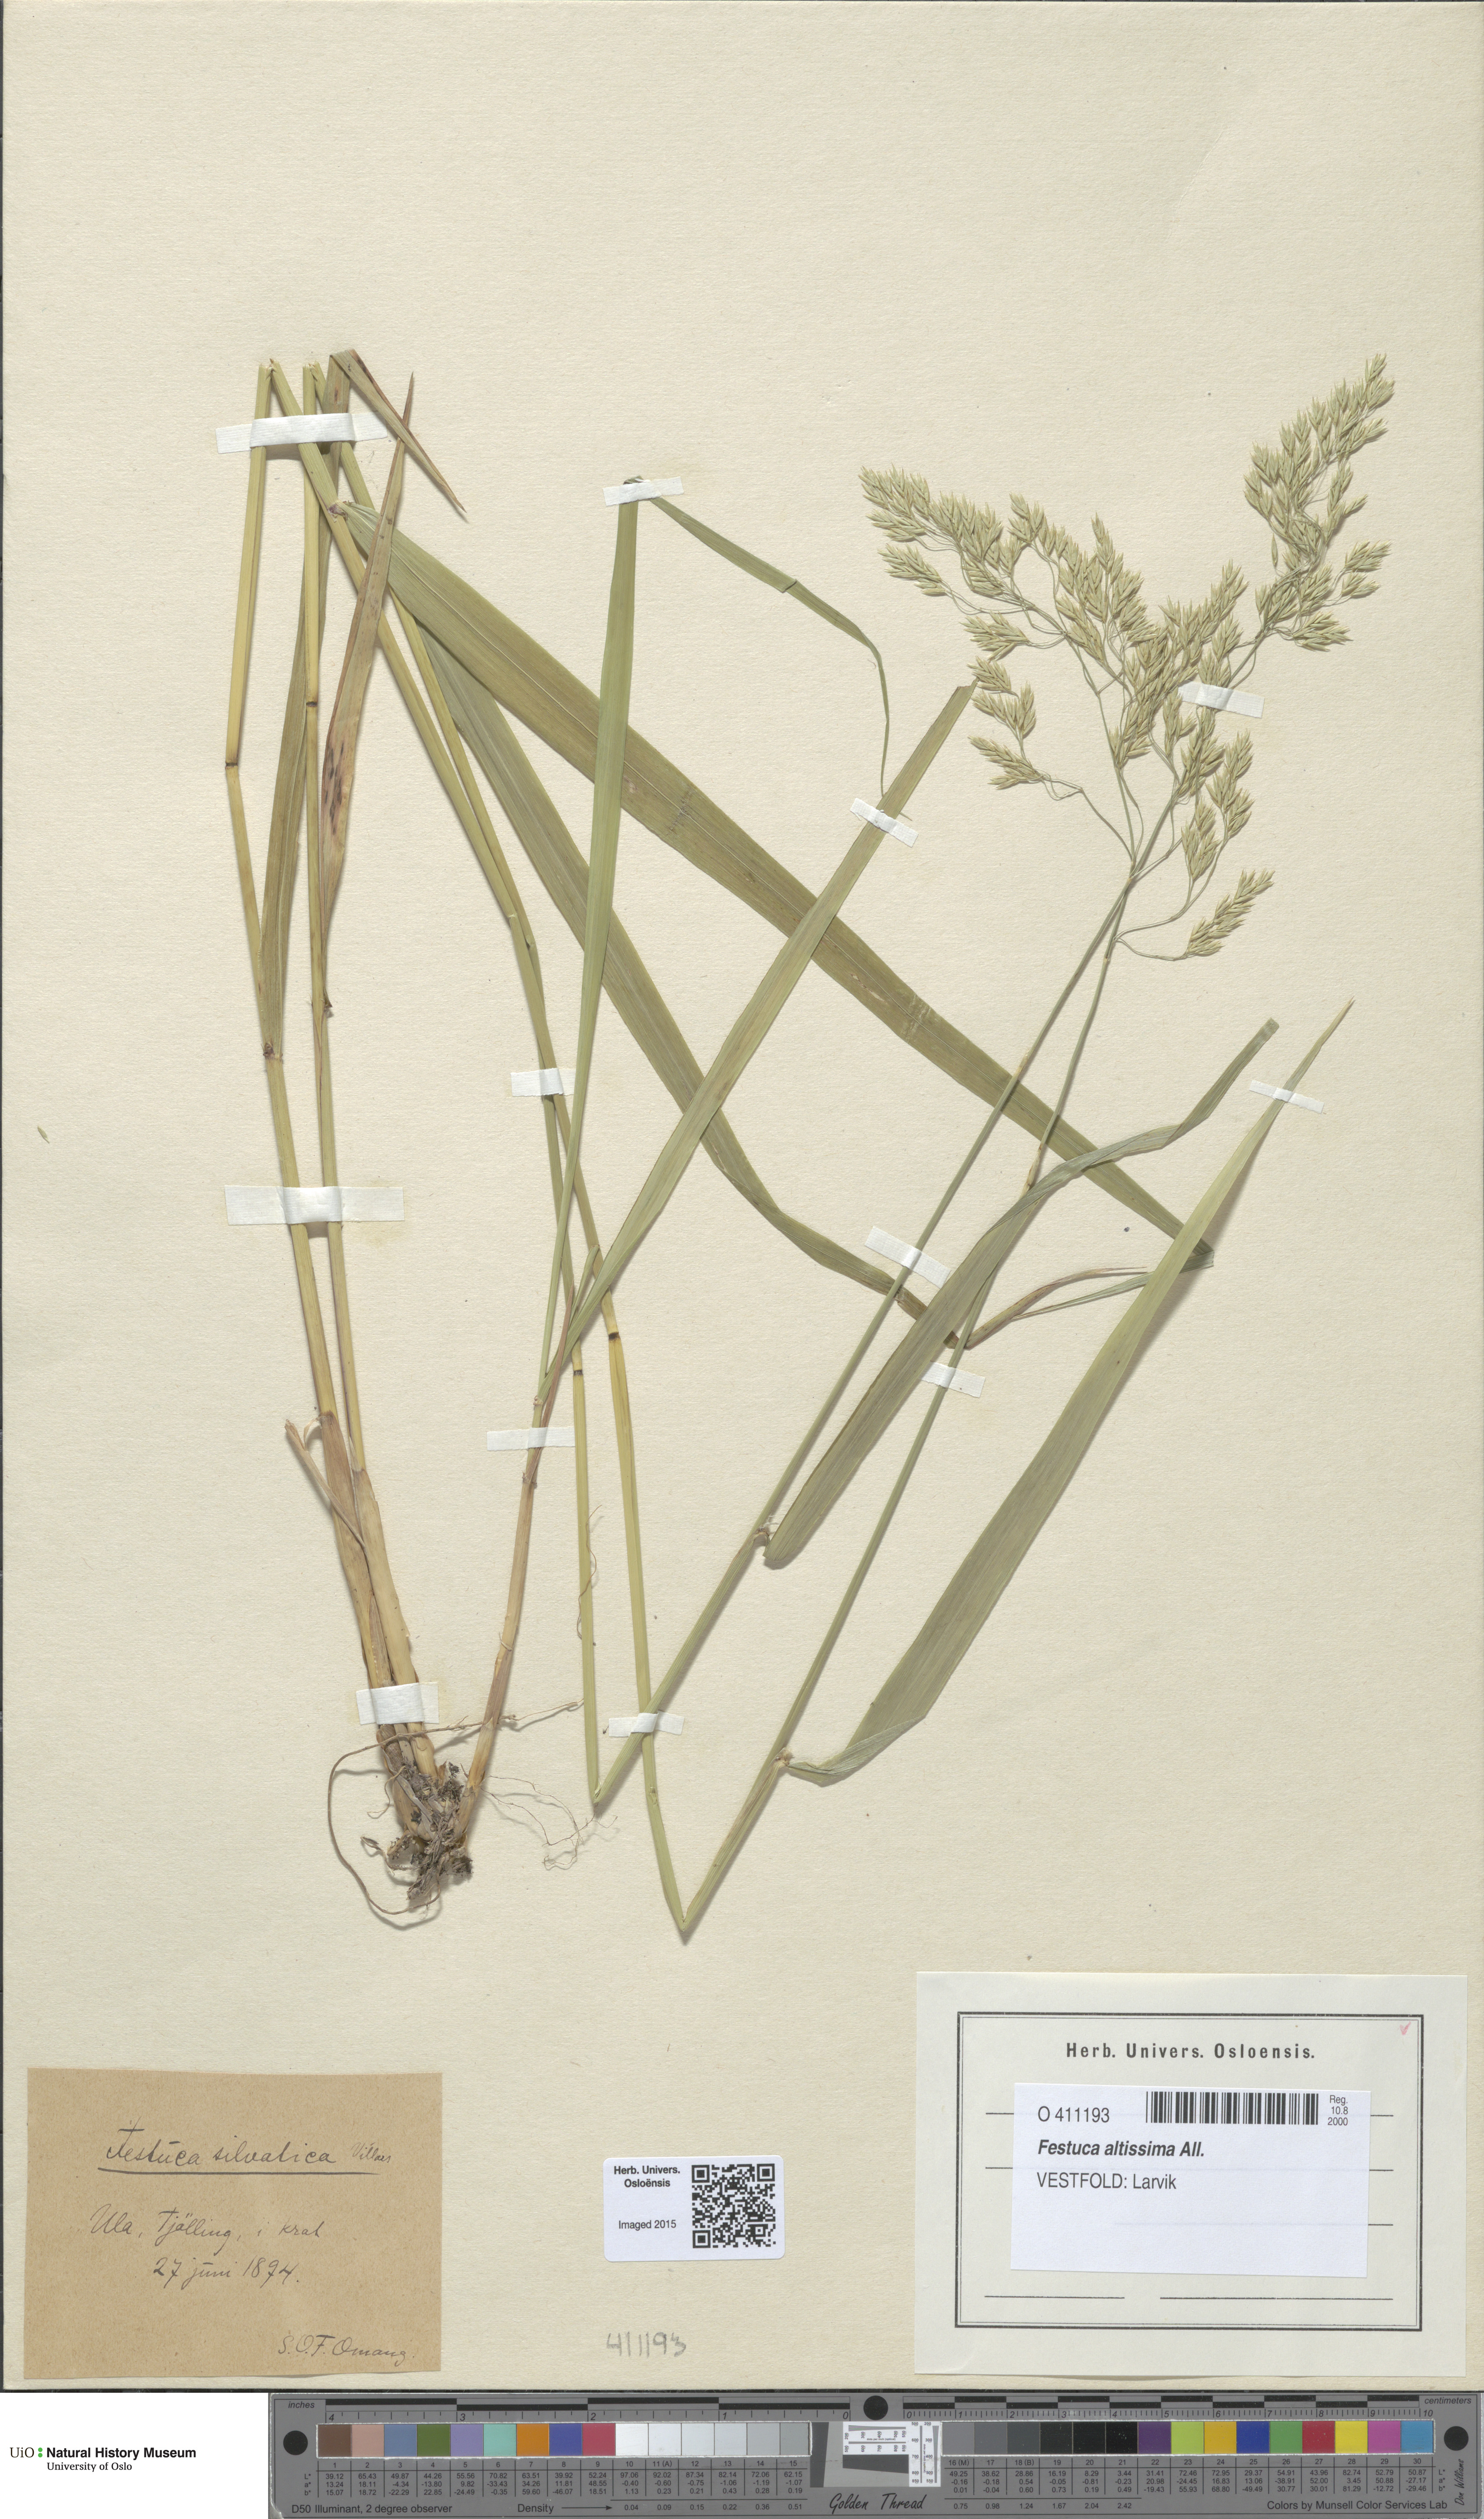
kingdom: Plantae
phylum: Tracheophyta
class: Liliopsida
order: Poales
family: Poaceae
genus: Festuca
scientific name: Festuca altissima
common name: Wood fescue
